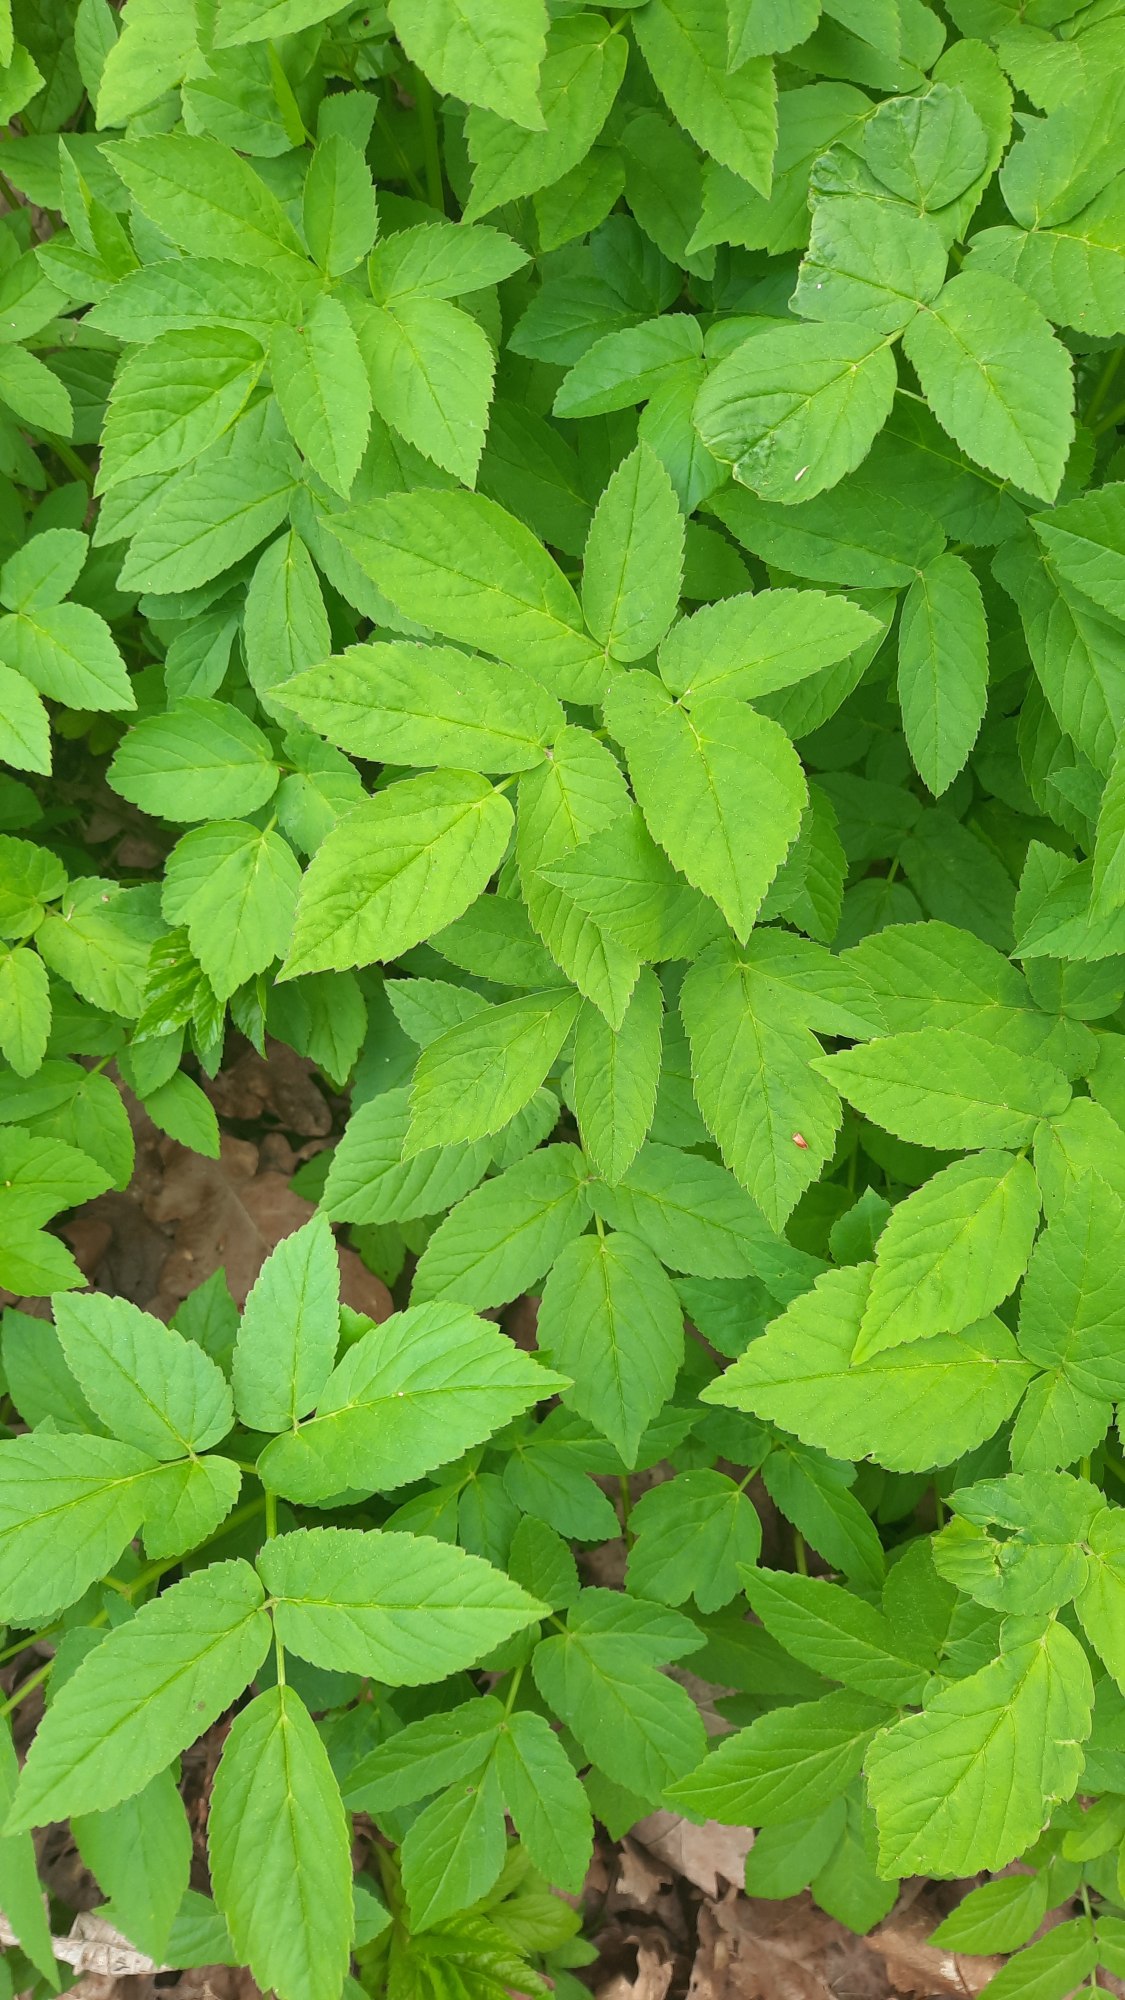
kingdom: Plantae
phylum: Tracheophyta
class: Magnoliopsida
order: Apiales
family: Apiaceae
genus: Aegopodium
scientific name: Aegopodium podagraria
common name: Skvalderkål
